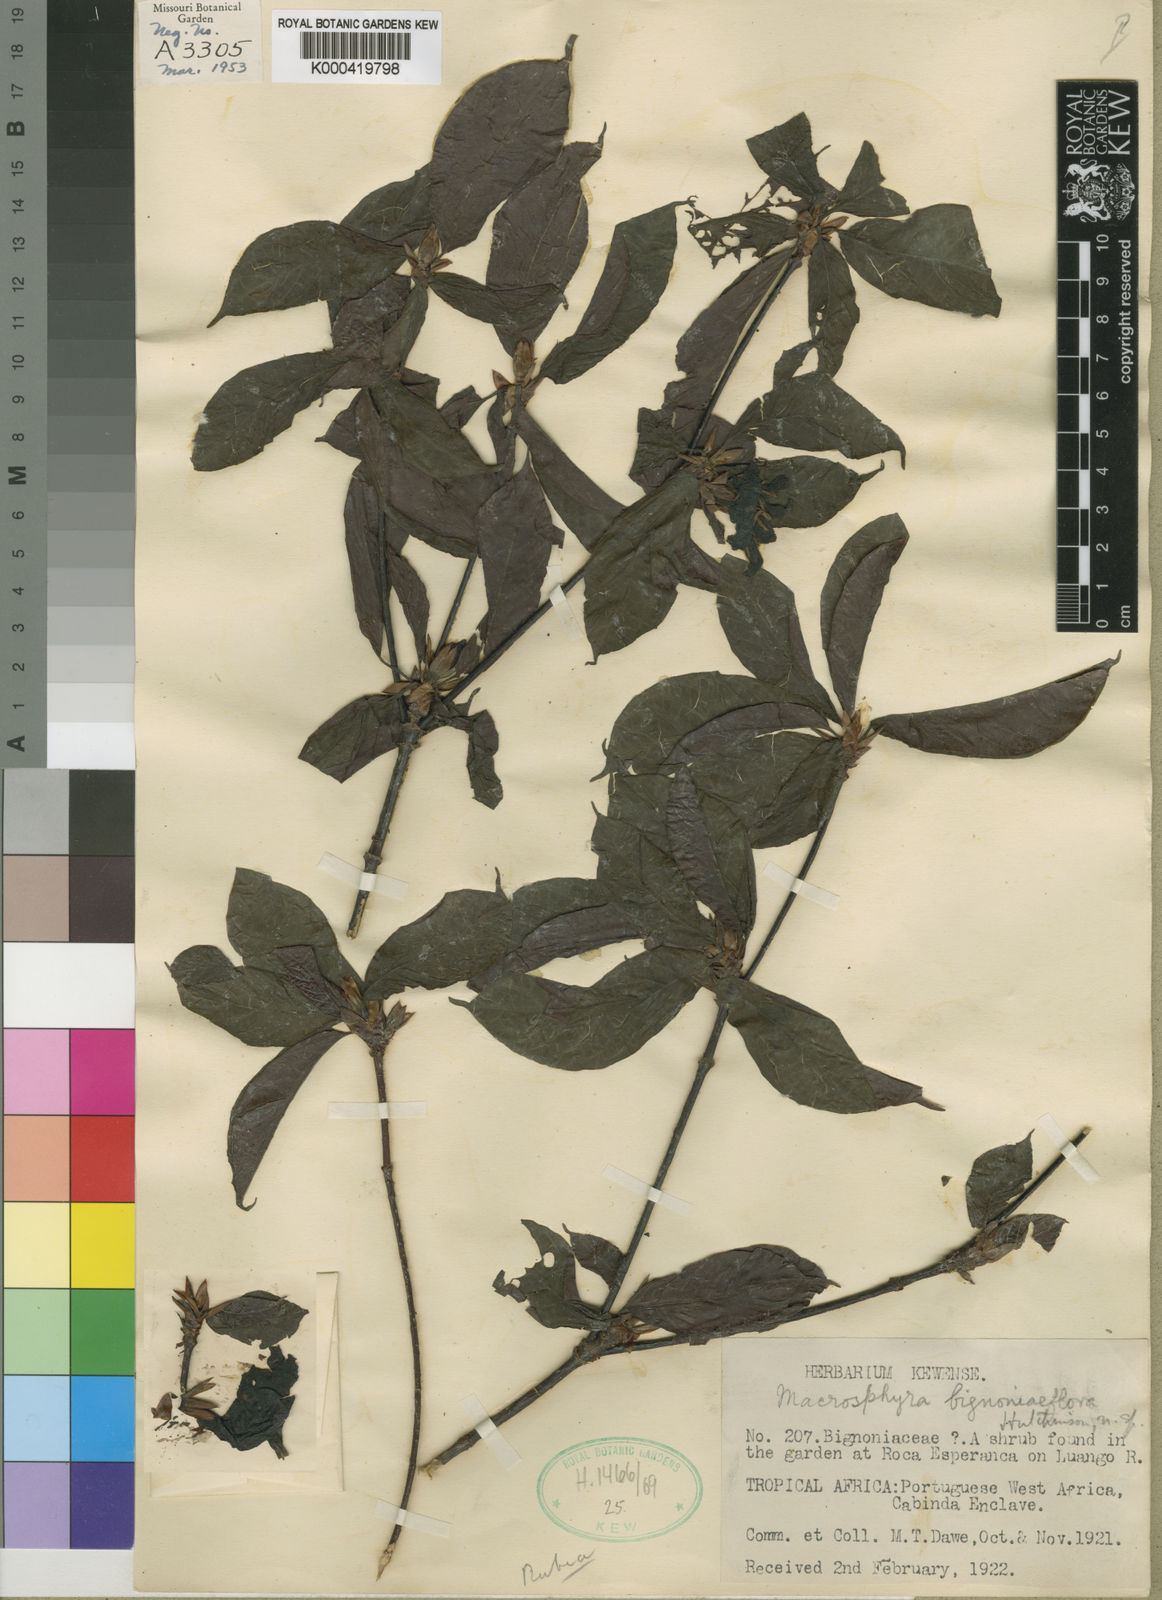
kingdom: Plantae
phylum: Tracheophyta
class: Magnoliopsida
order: Gentianales
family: Rubiaceae
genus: Macrosphyra
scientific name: Macrosphyra
